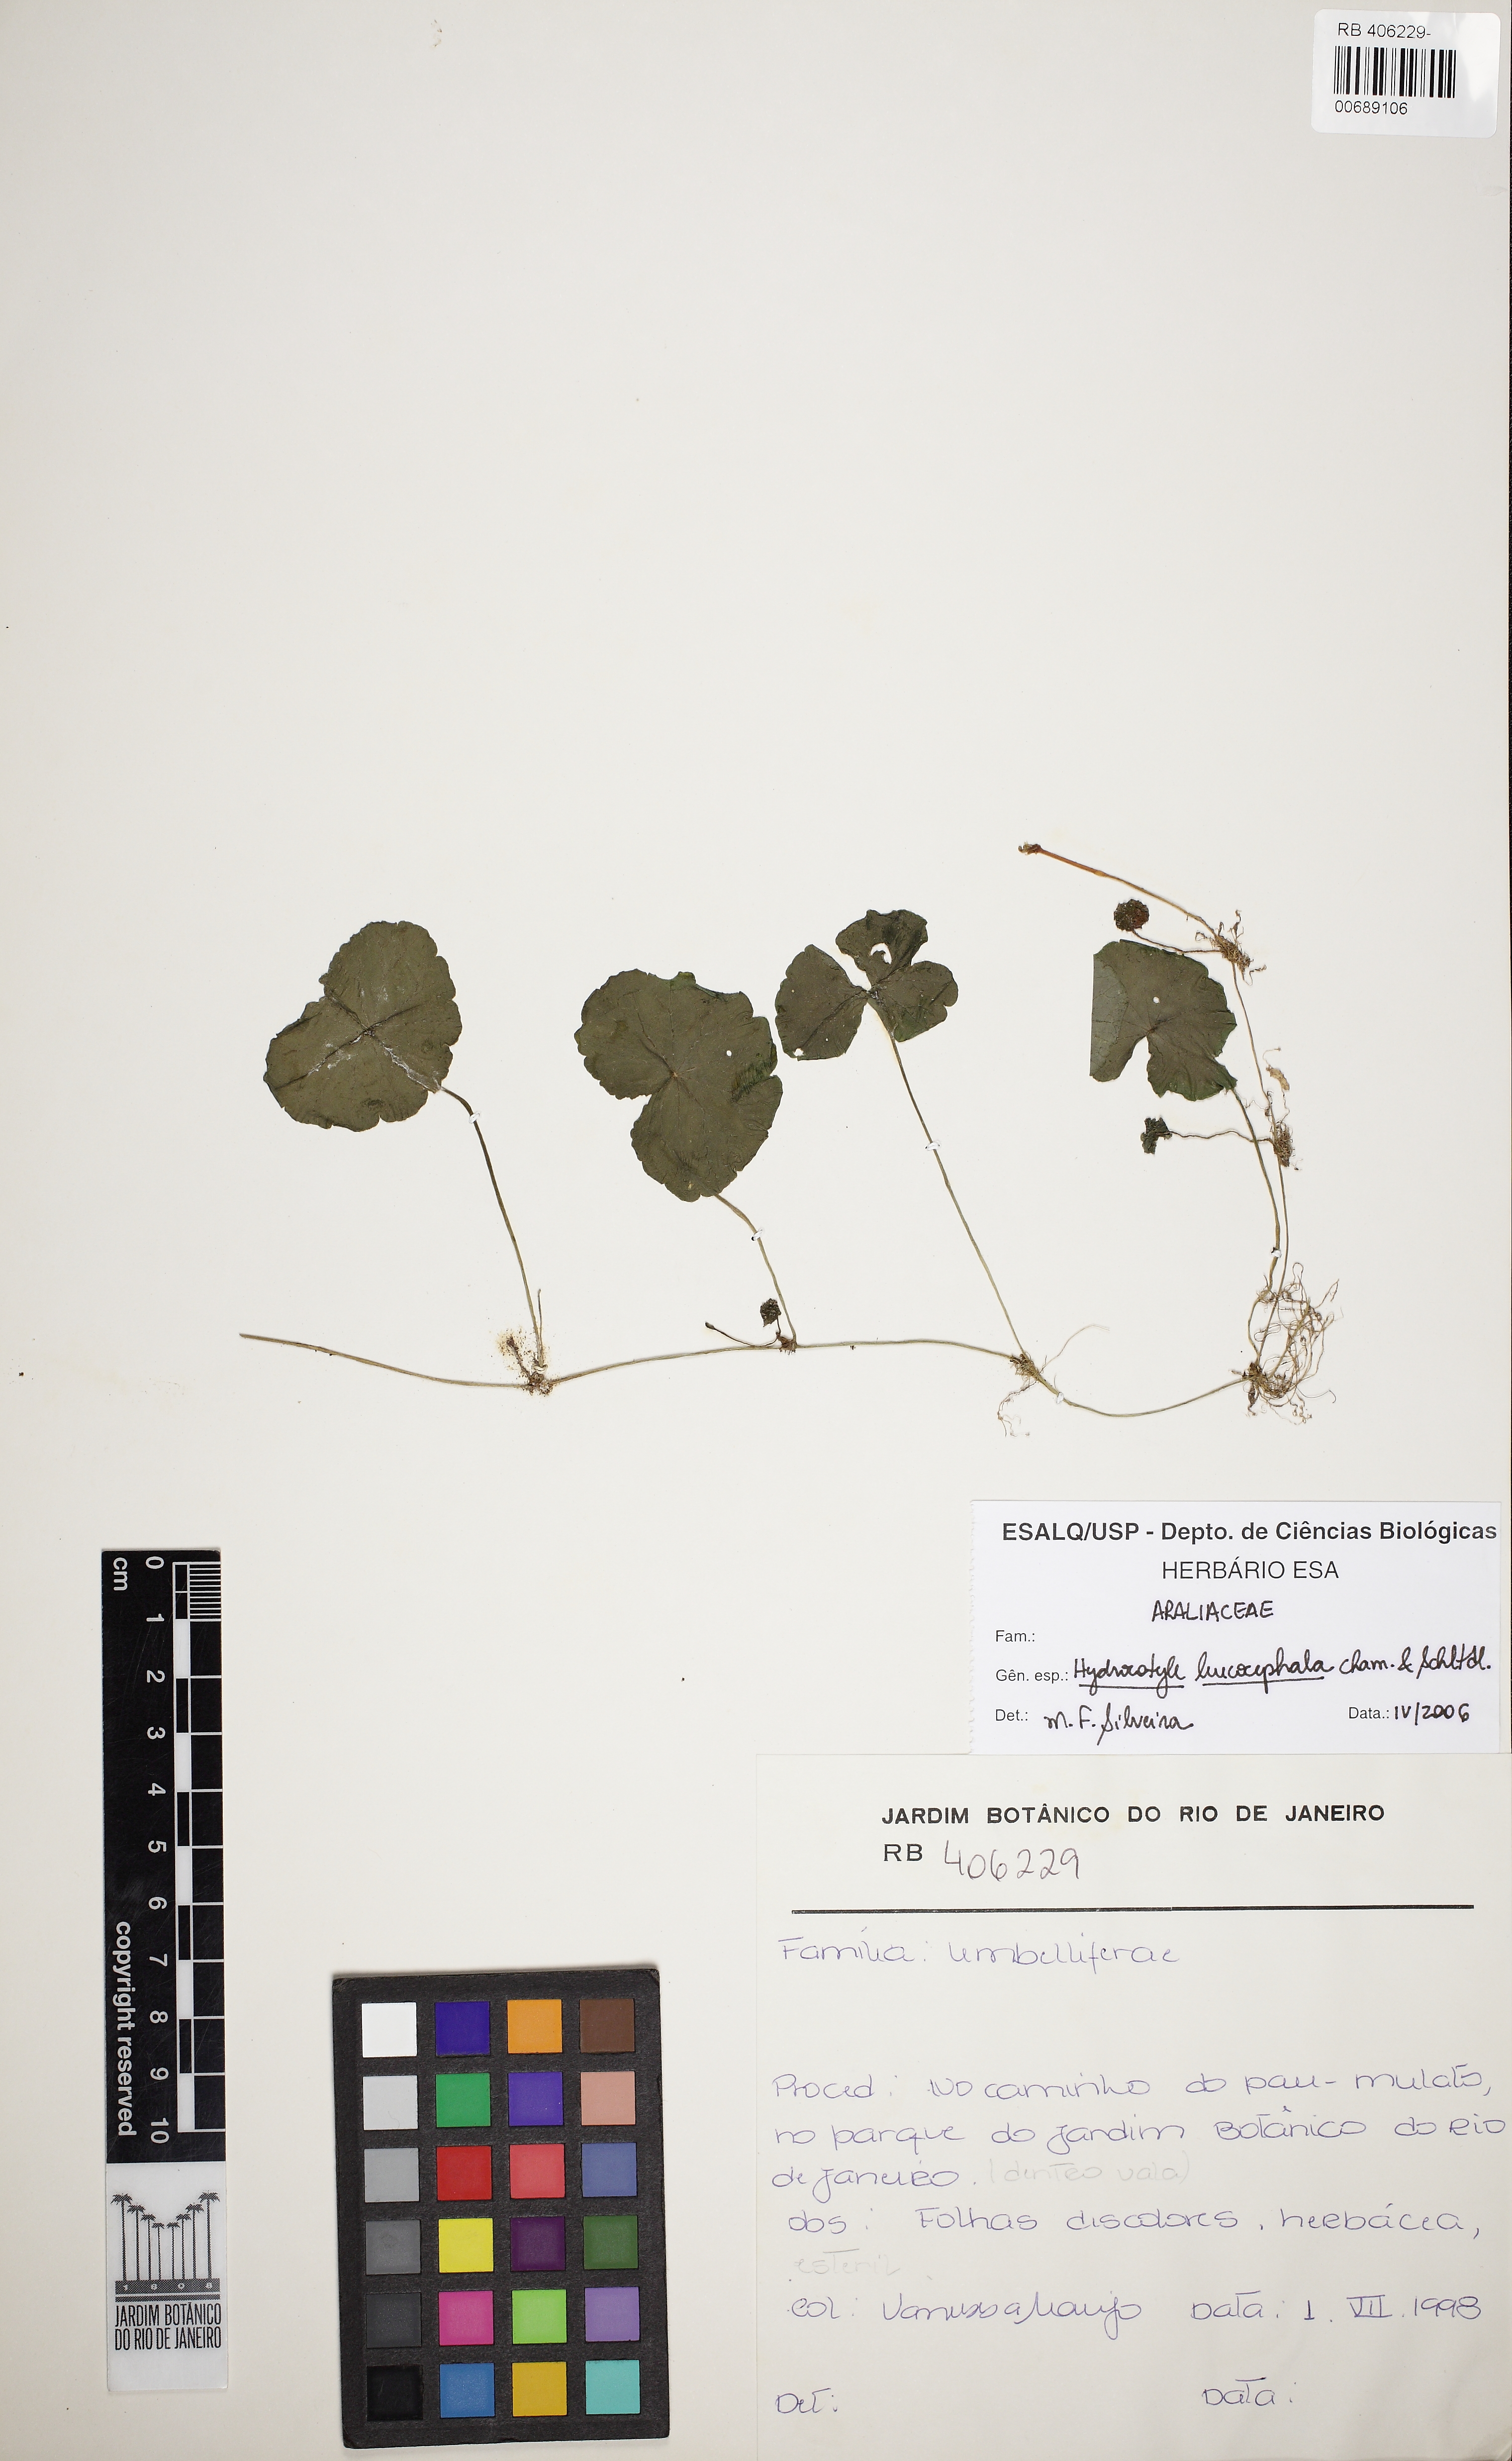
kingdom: Plantae
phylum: Tracheophyta
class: Magnoliopsida
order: Apiales
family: Araliaceae
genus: Hydrocotyle
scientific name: Hydrocotyle leucocephala
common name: Brazilian pennywort
